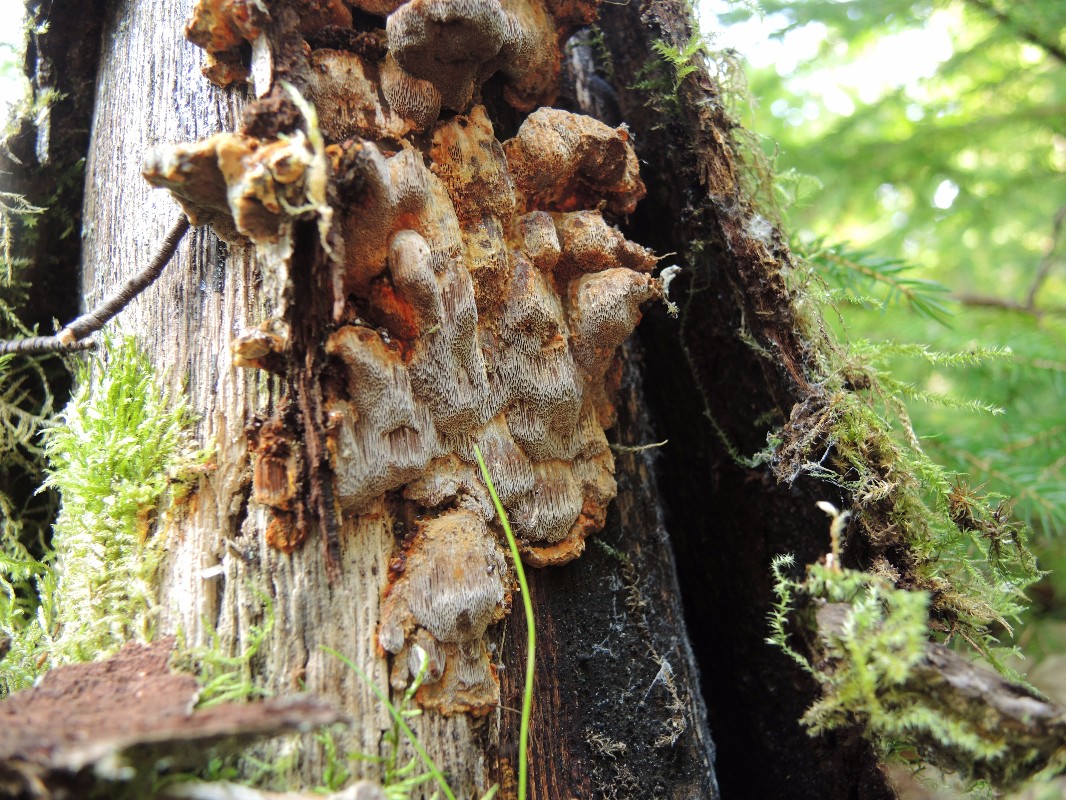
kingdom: Fungi
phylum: Basidiomycota
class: Agaricomycetes
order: Hymenochaetales
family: Hymenochaetaceae
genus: Xanthoporia
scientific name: Xanthoporia radiata
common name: elle-spejlporesvamp
